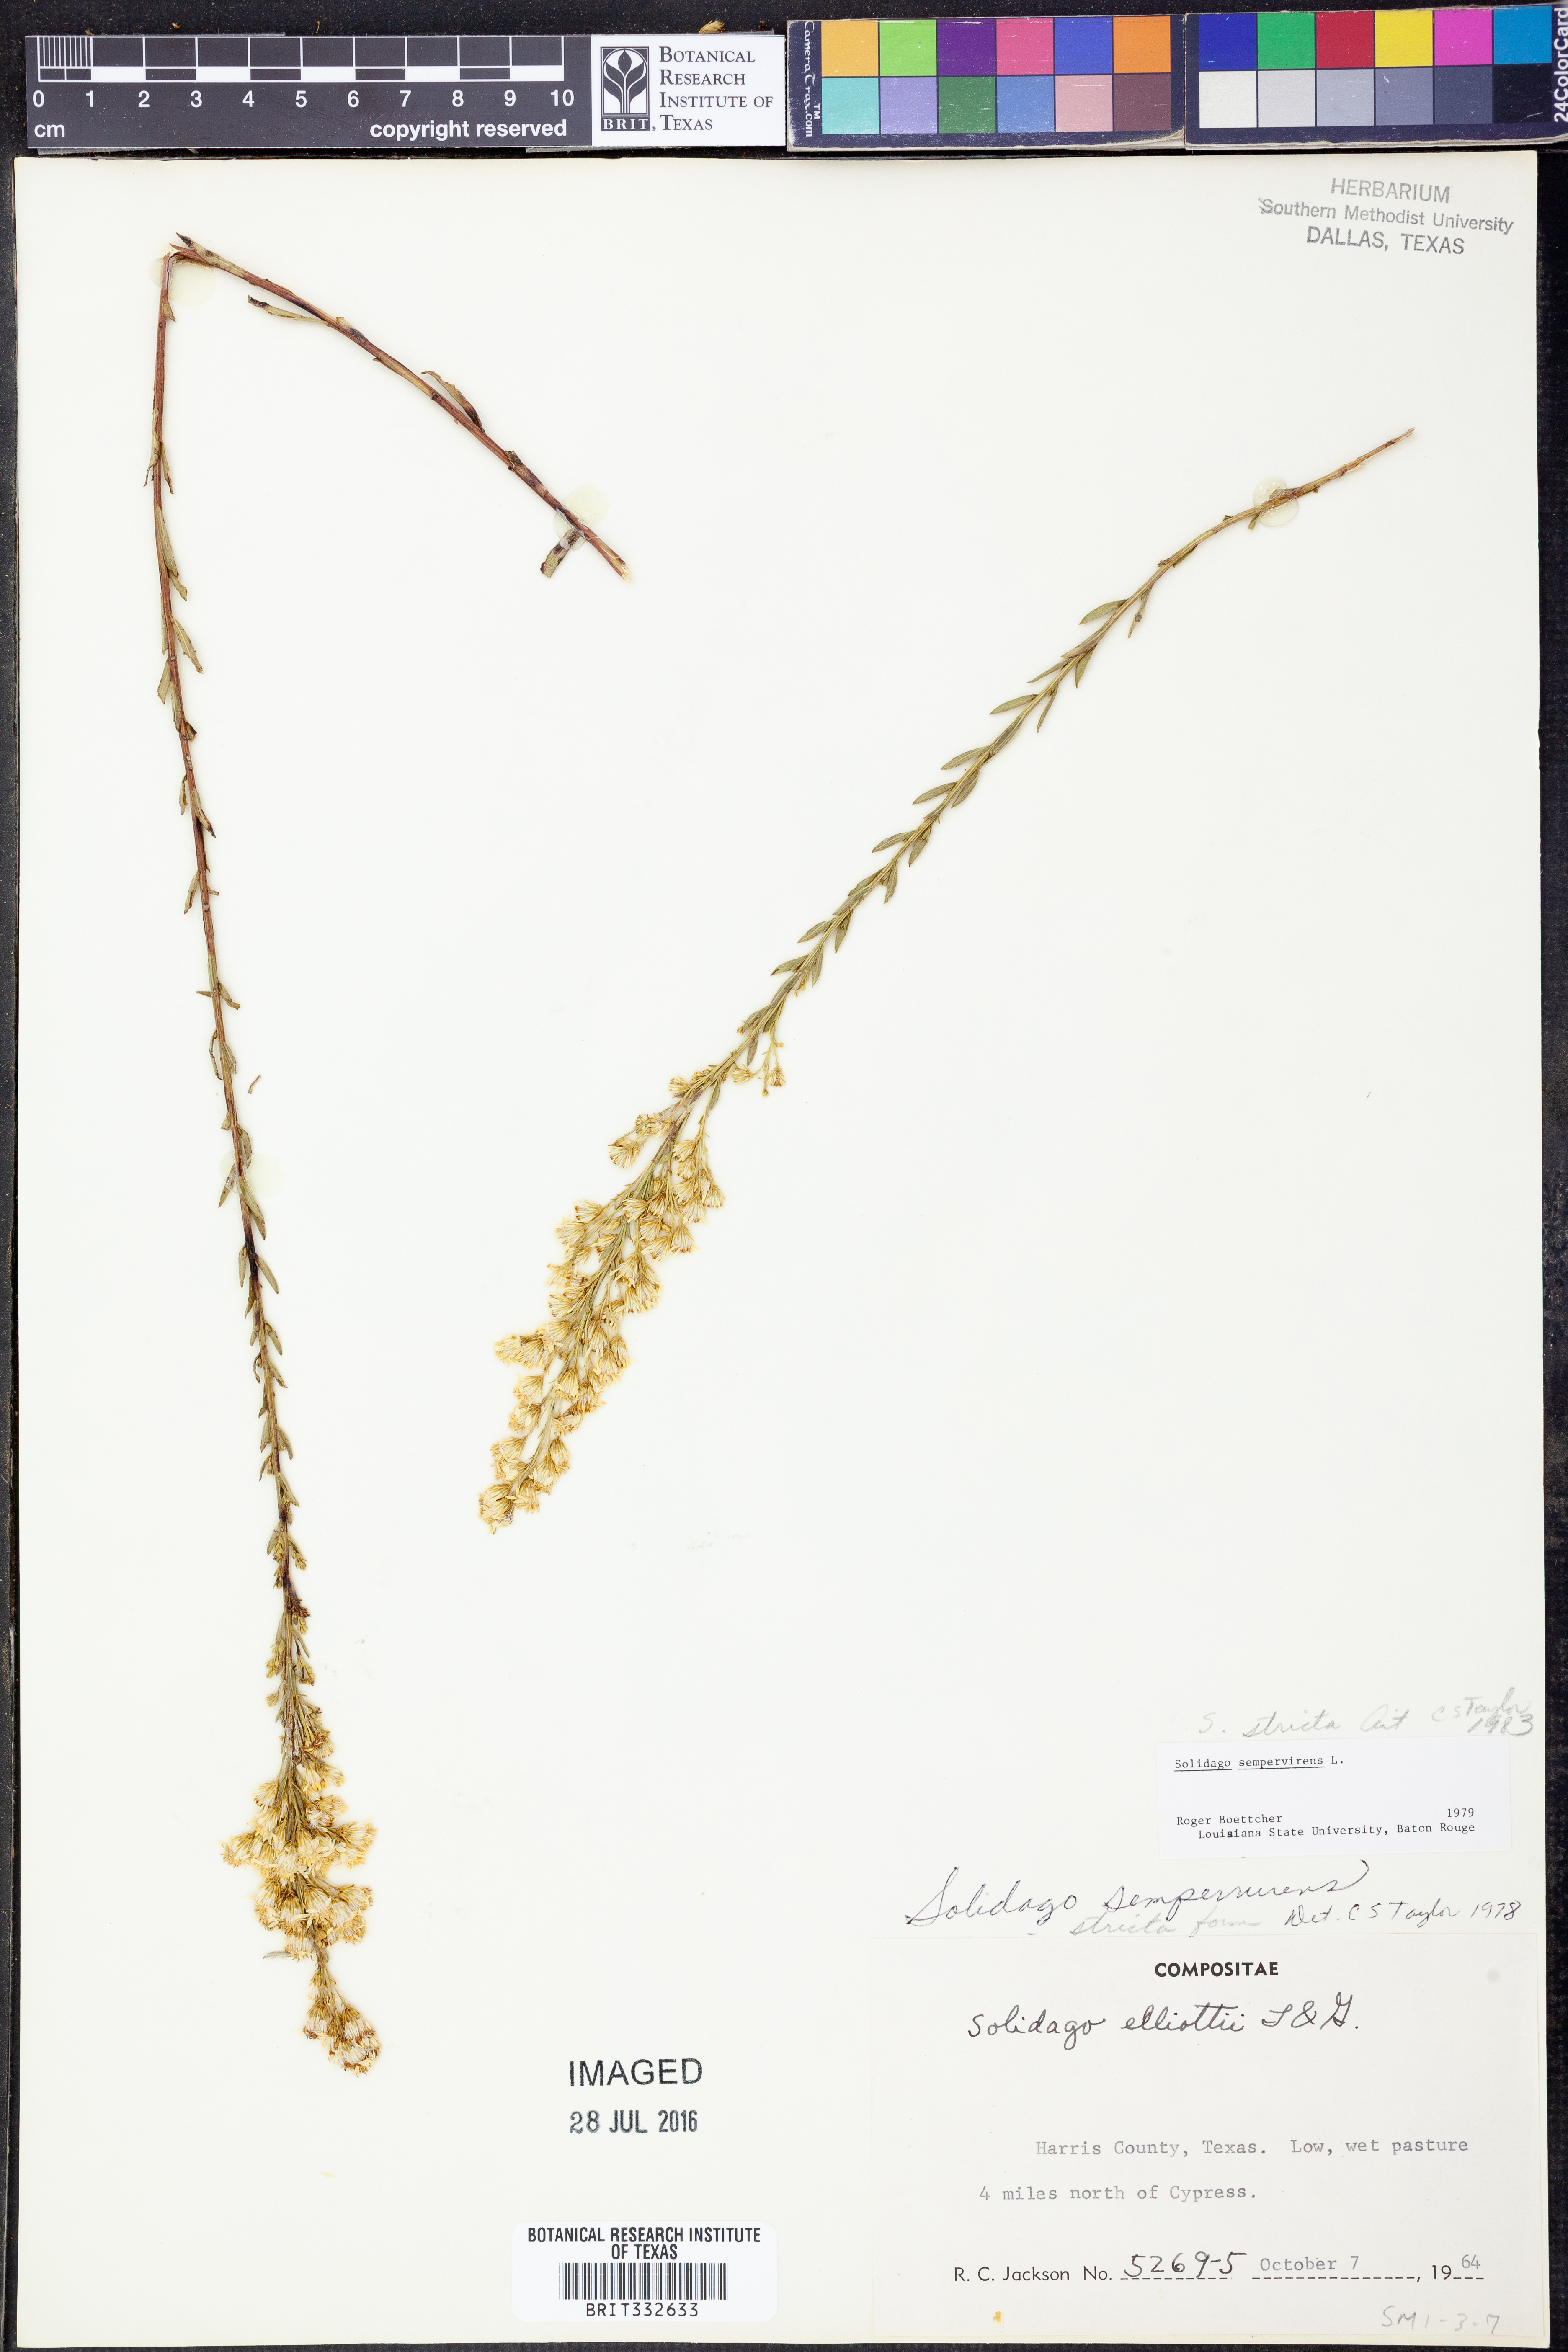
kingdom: Plantae
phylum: Tracheophyta
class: Magnoliopsida
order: Asterales
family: Asteraceae
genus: Solidago
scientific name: Solidago stricta
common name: Pine barren bog goldenrod
